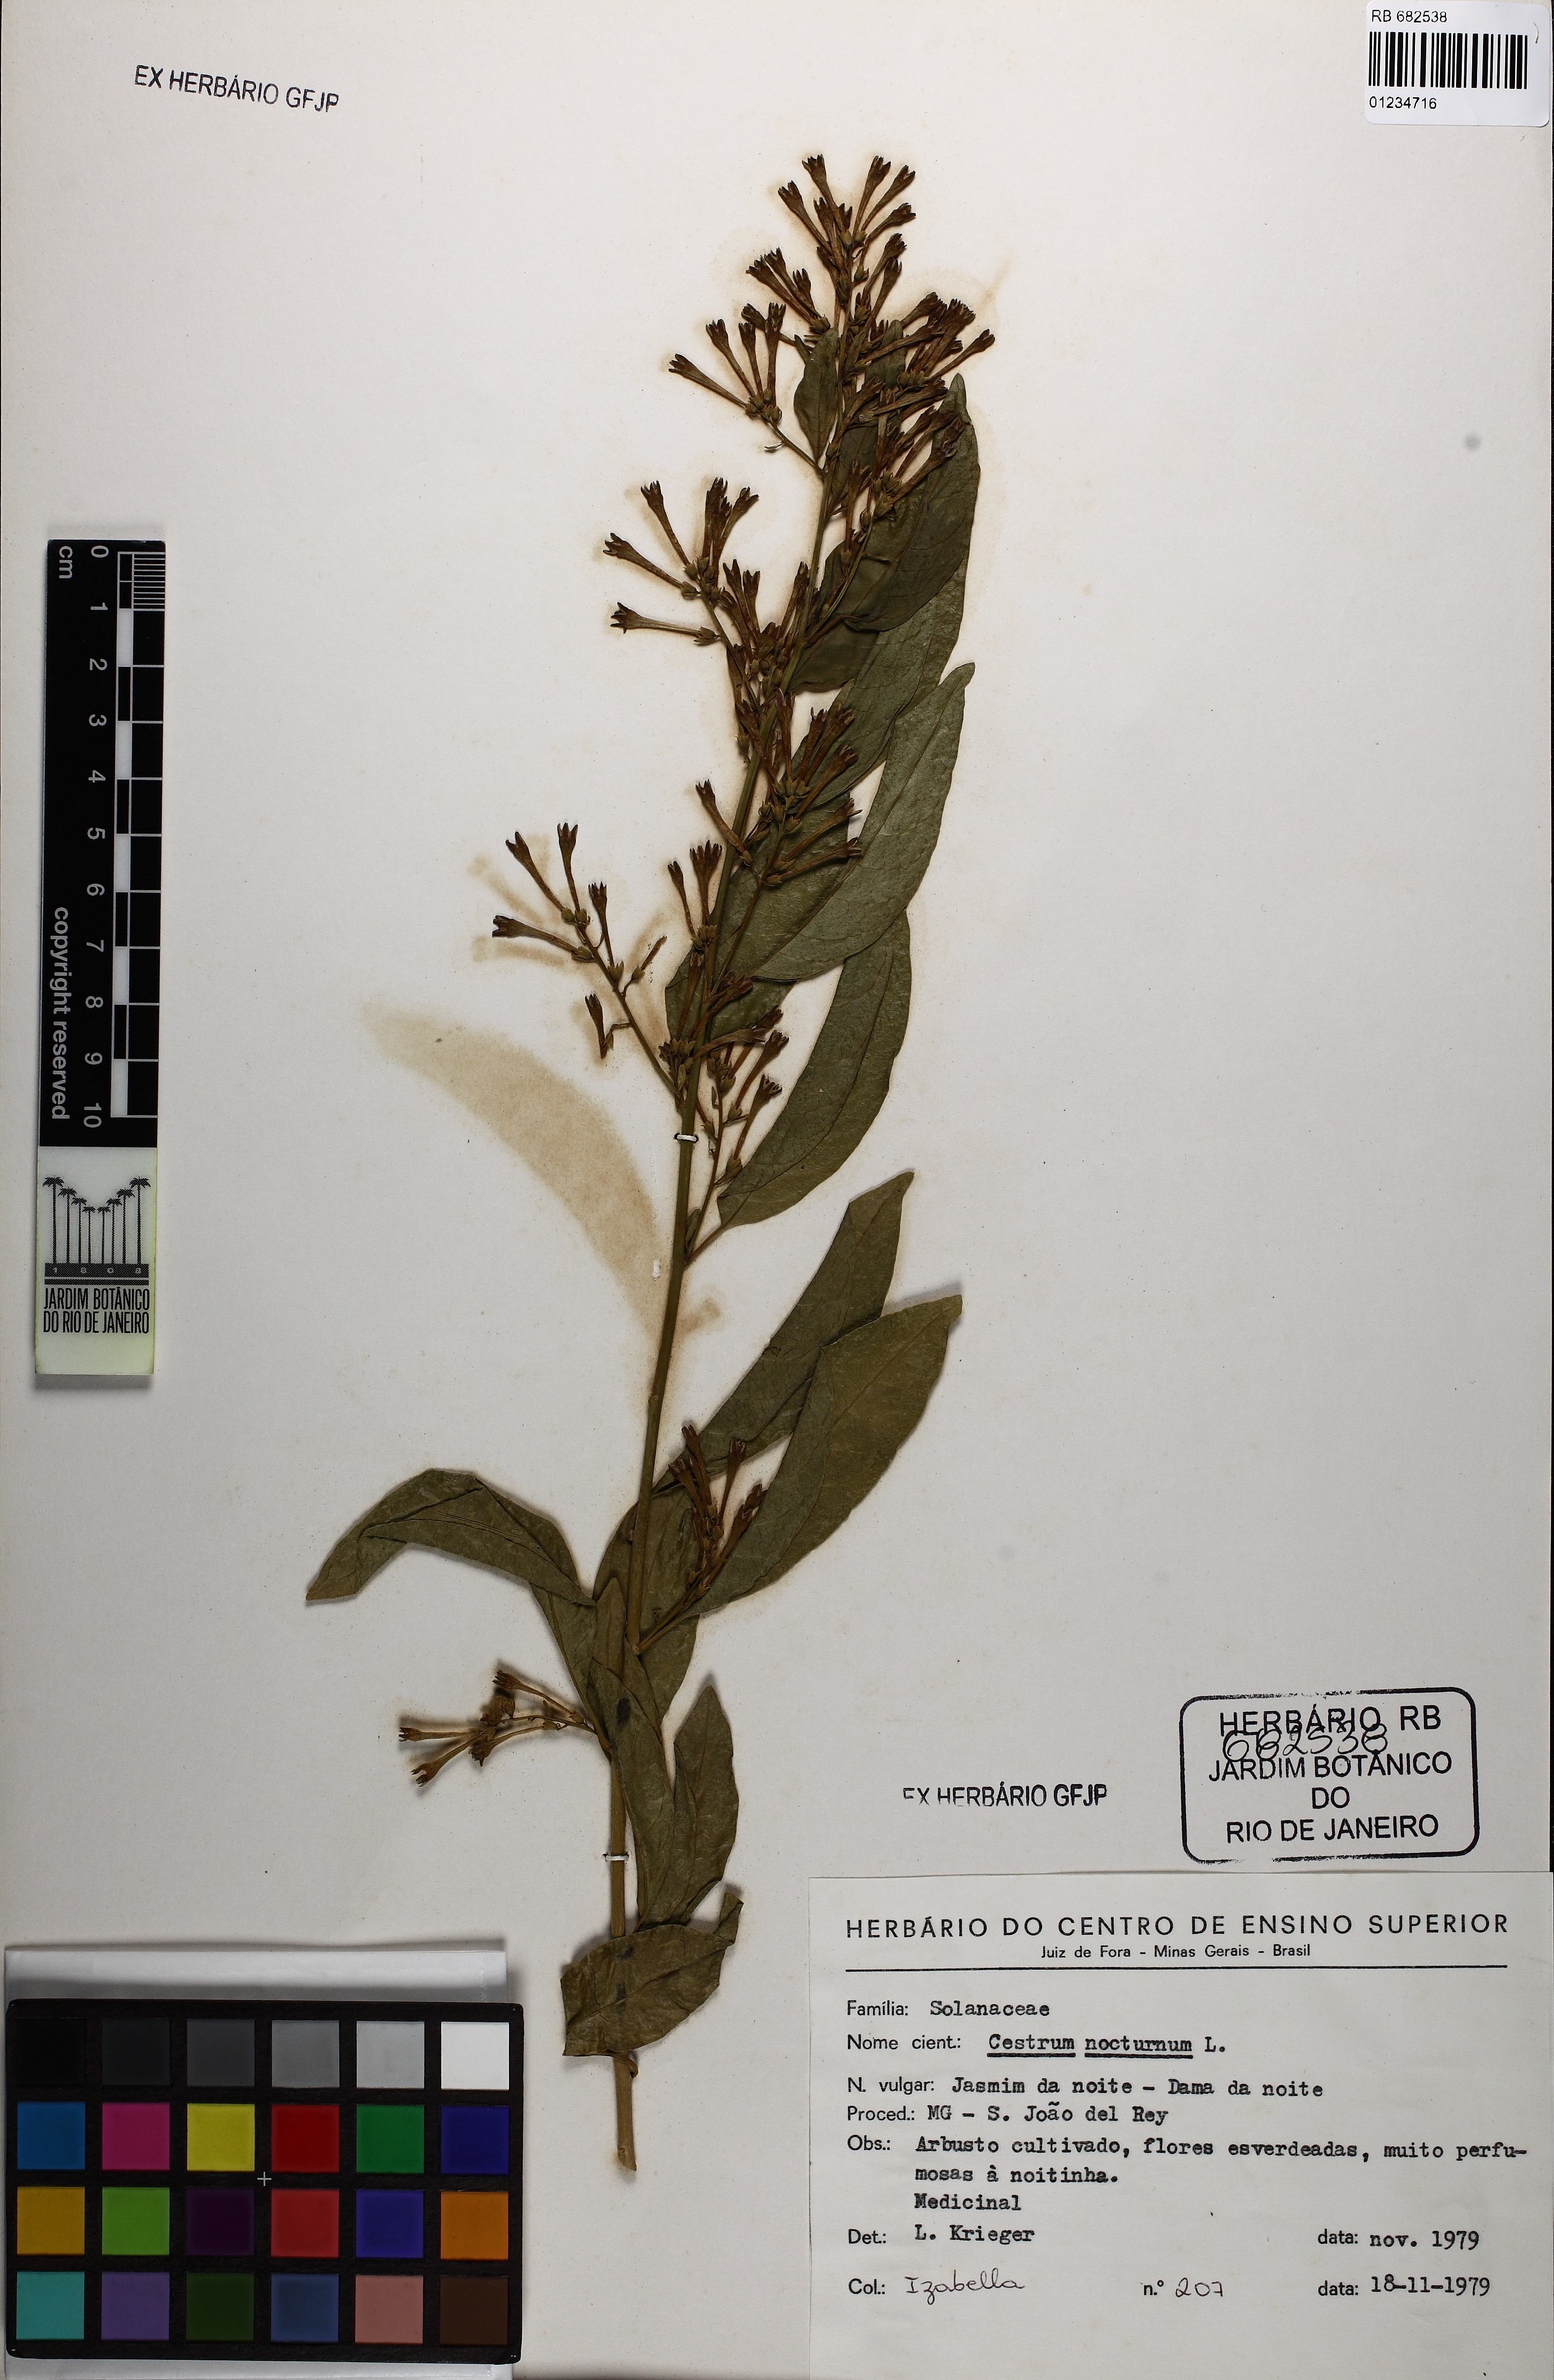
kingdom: Plantae
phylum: Tracheophyta
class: Magnoliopsida
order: Solanales
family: Solanaceae
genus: Cestrum
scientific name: Cestrum nocturnum
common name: Night jessamine
